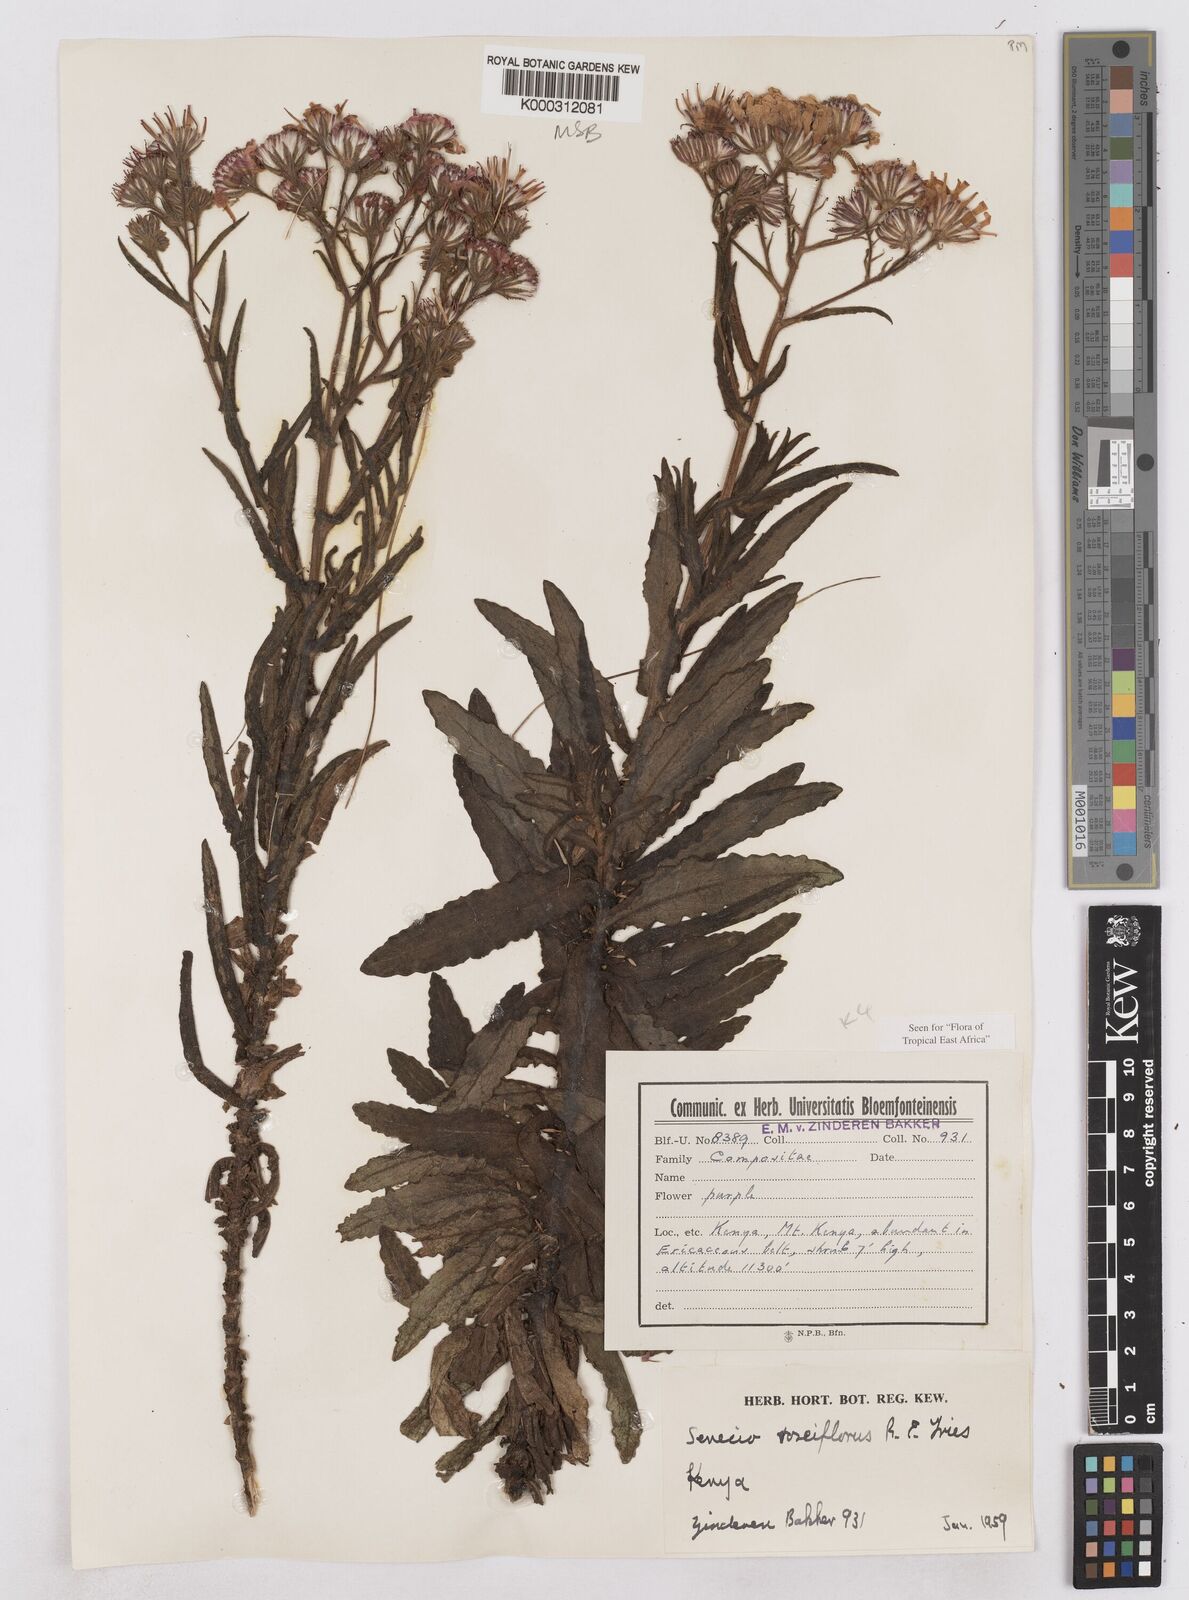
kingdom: Plantae
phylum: Tracheophyta
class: Magnoliopsida
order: Asterales
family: Asteraceae
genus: Senecio
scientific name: Senecio roseiflorus
